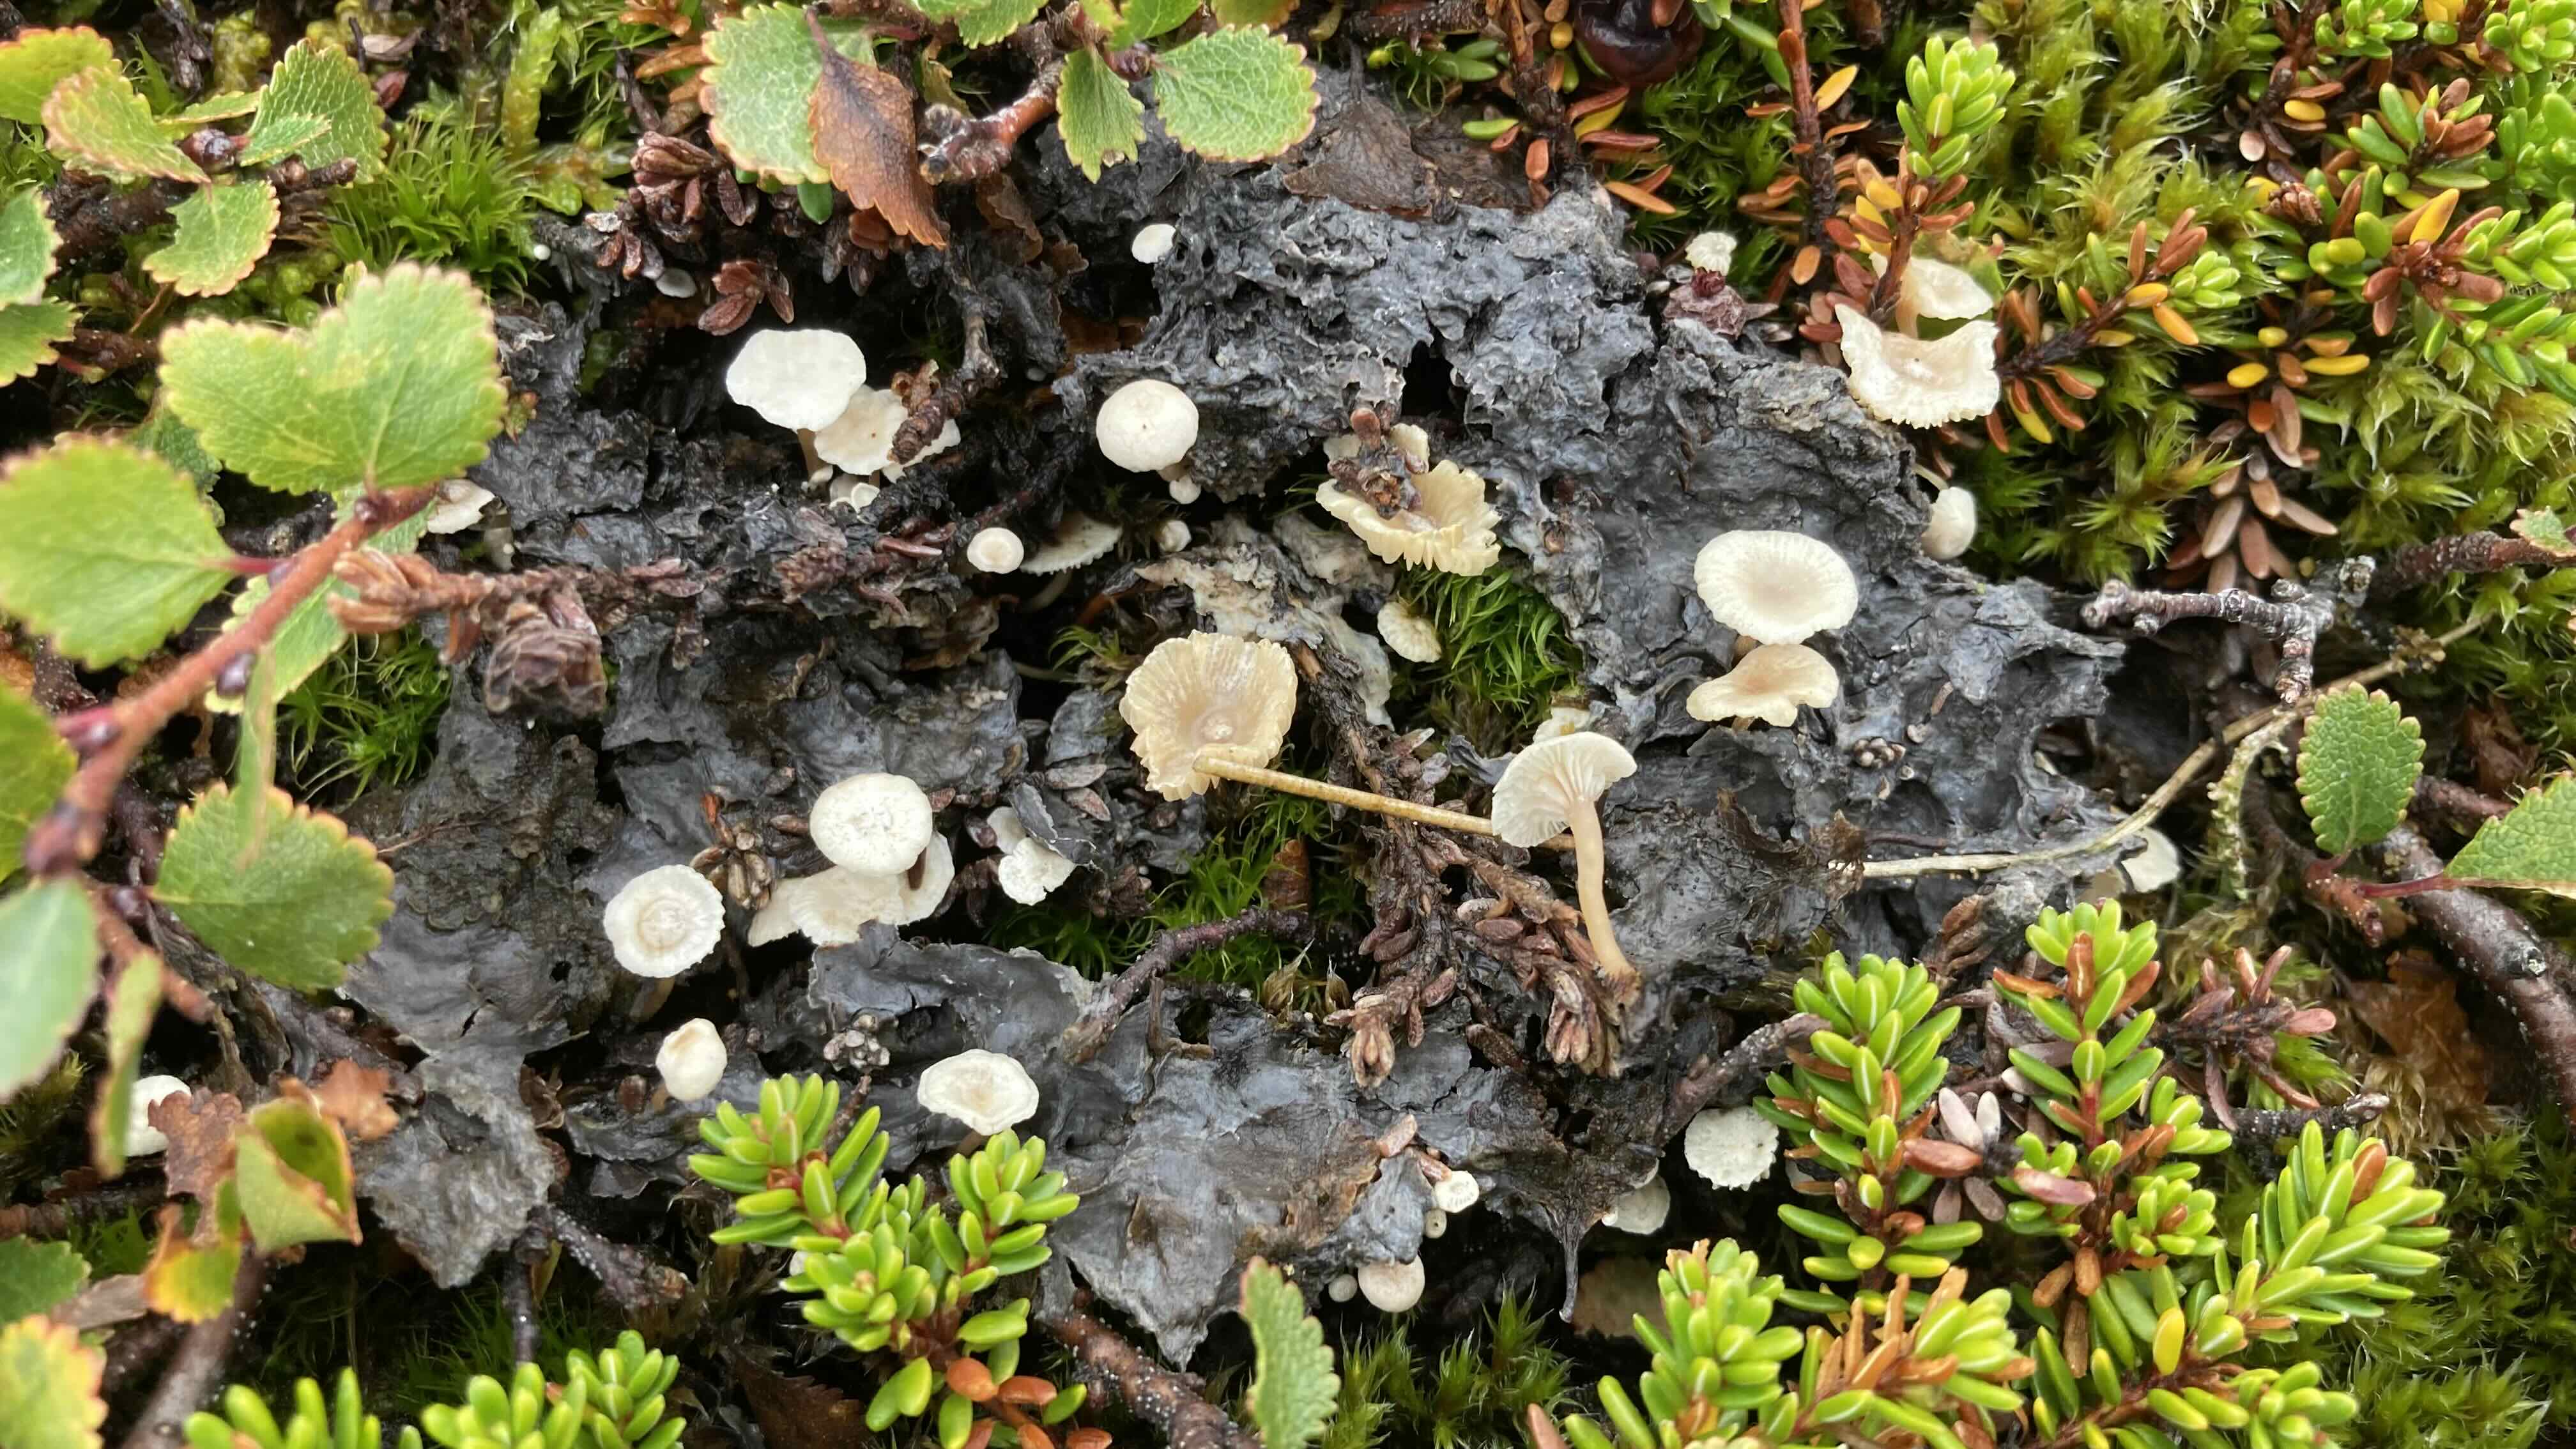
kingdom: Fungi
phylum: Basidiomycota
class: Agaricomycetes
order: Agaricales
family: Tricholomataceae
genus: Collybia
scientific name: Collybia cirrhata
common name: silke-lighat
